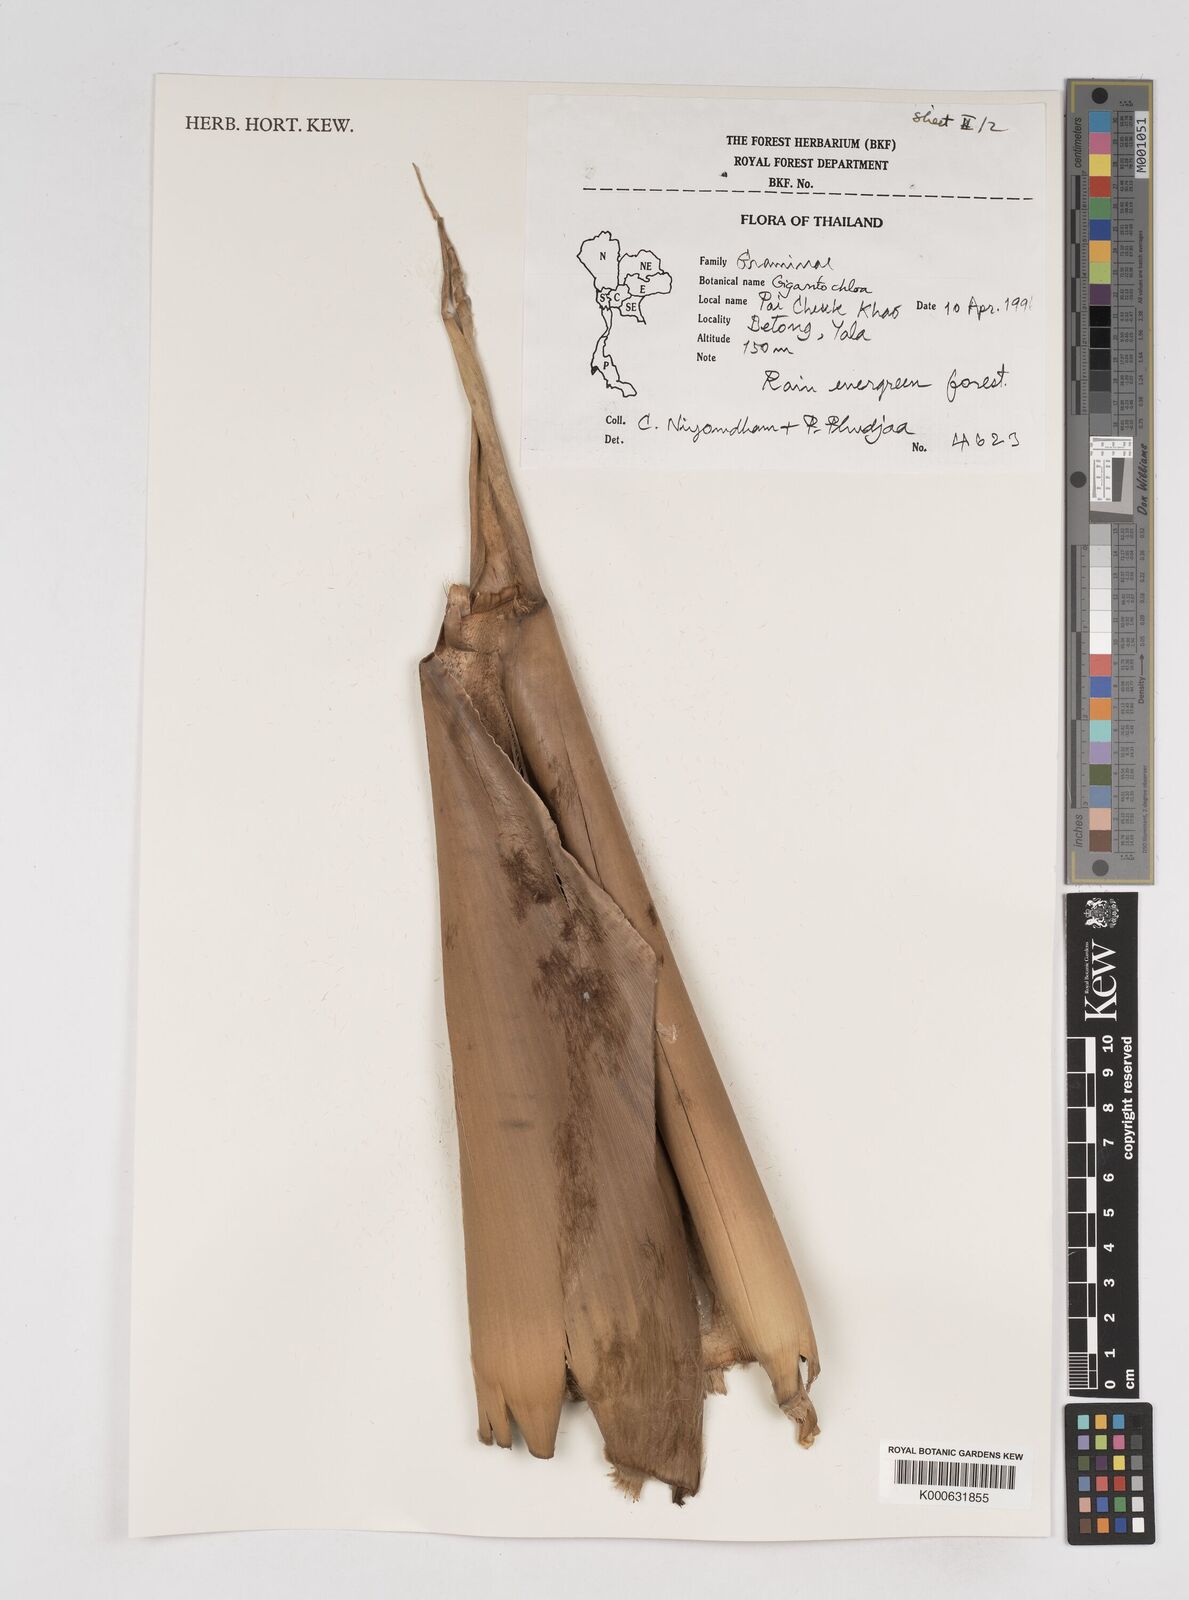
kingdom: Plantae
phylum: Tracheophyta
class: Liliopsida
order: Poales
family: Poaceae
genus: Gigantochloa
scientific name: Gigantochloa
